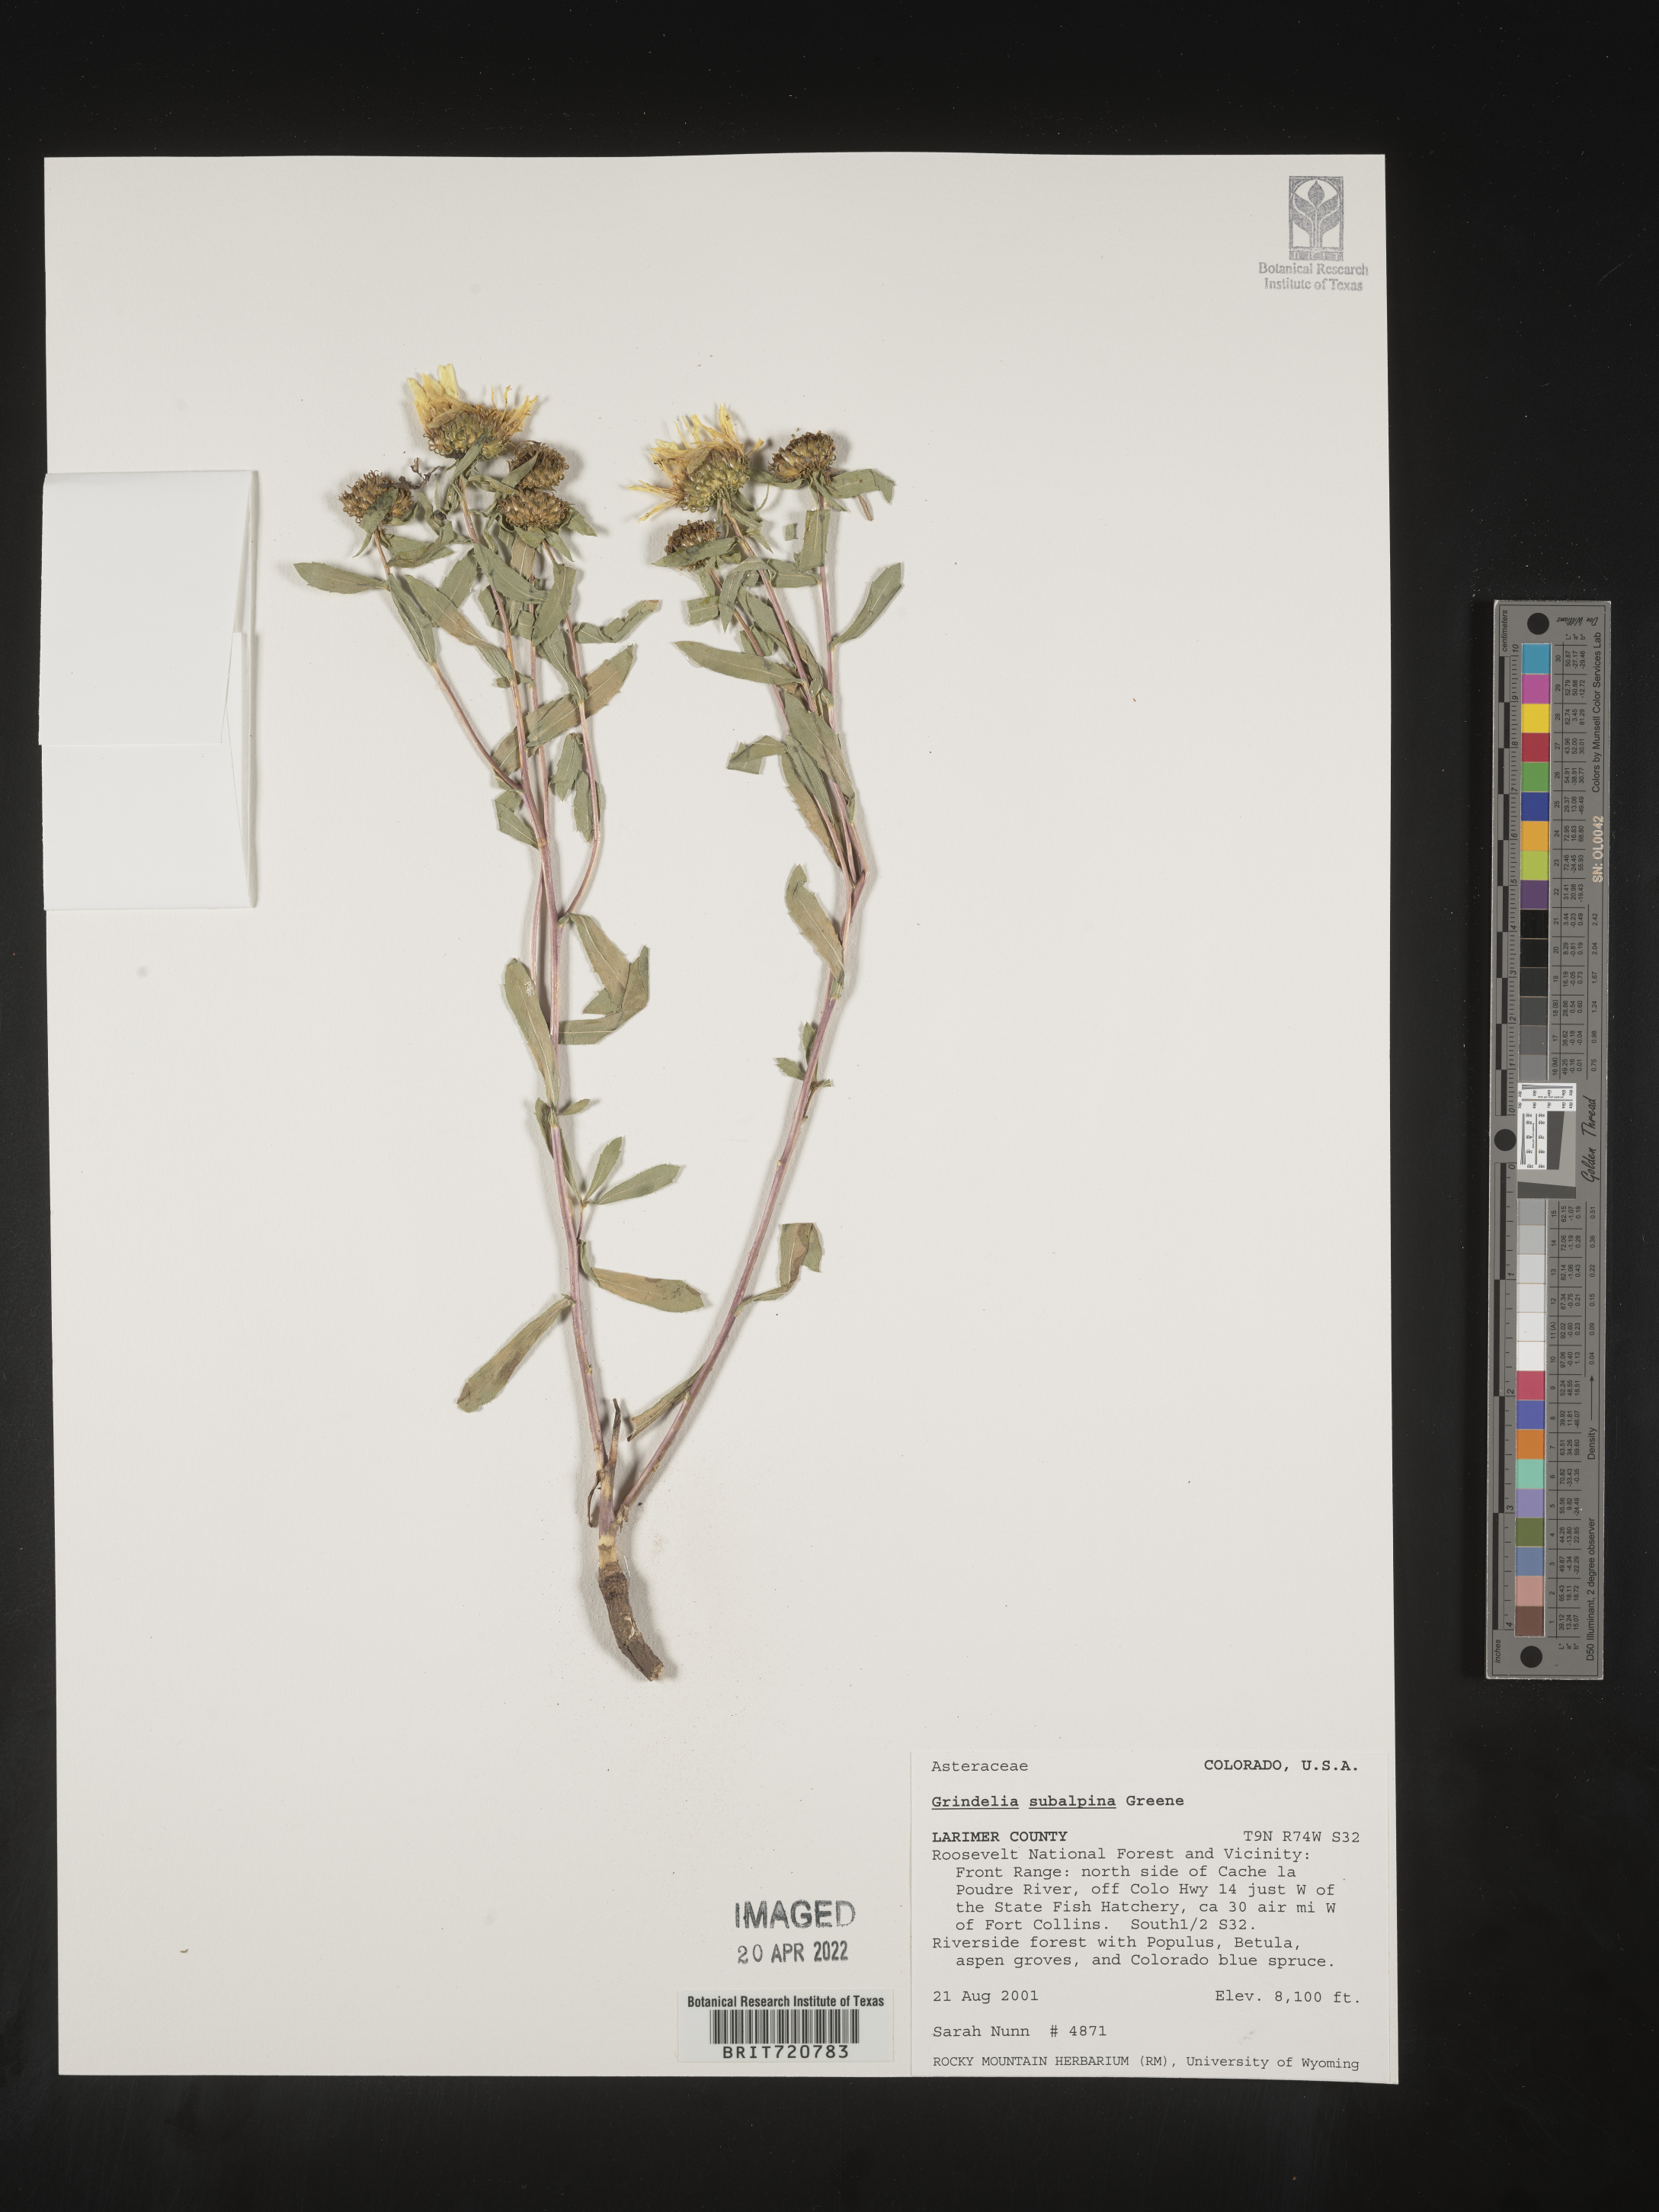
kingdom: Plantae
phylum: Tracheophyta
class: Magnoliopsida
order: Asterales
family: Asteraceae
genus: Grindelia
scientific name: Grindelia
